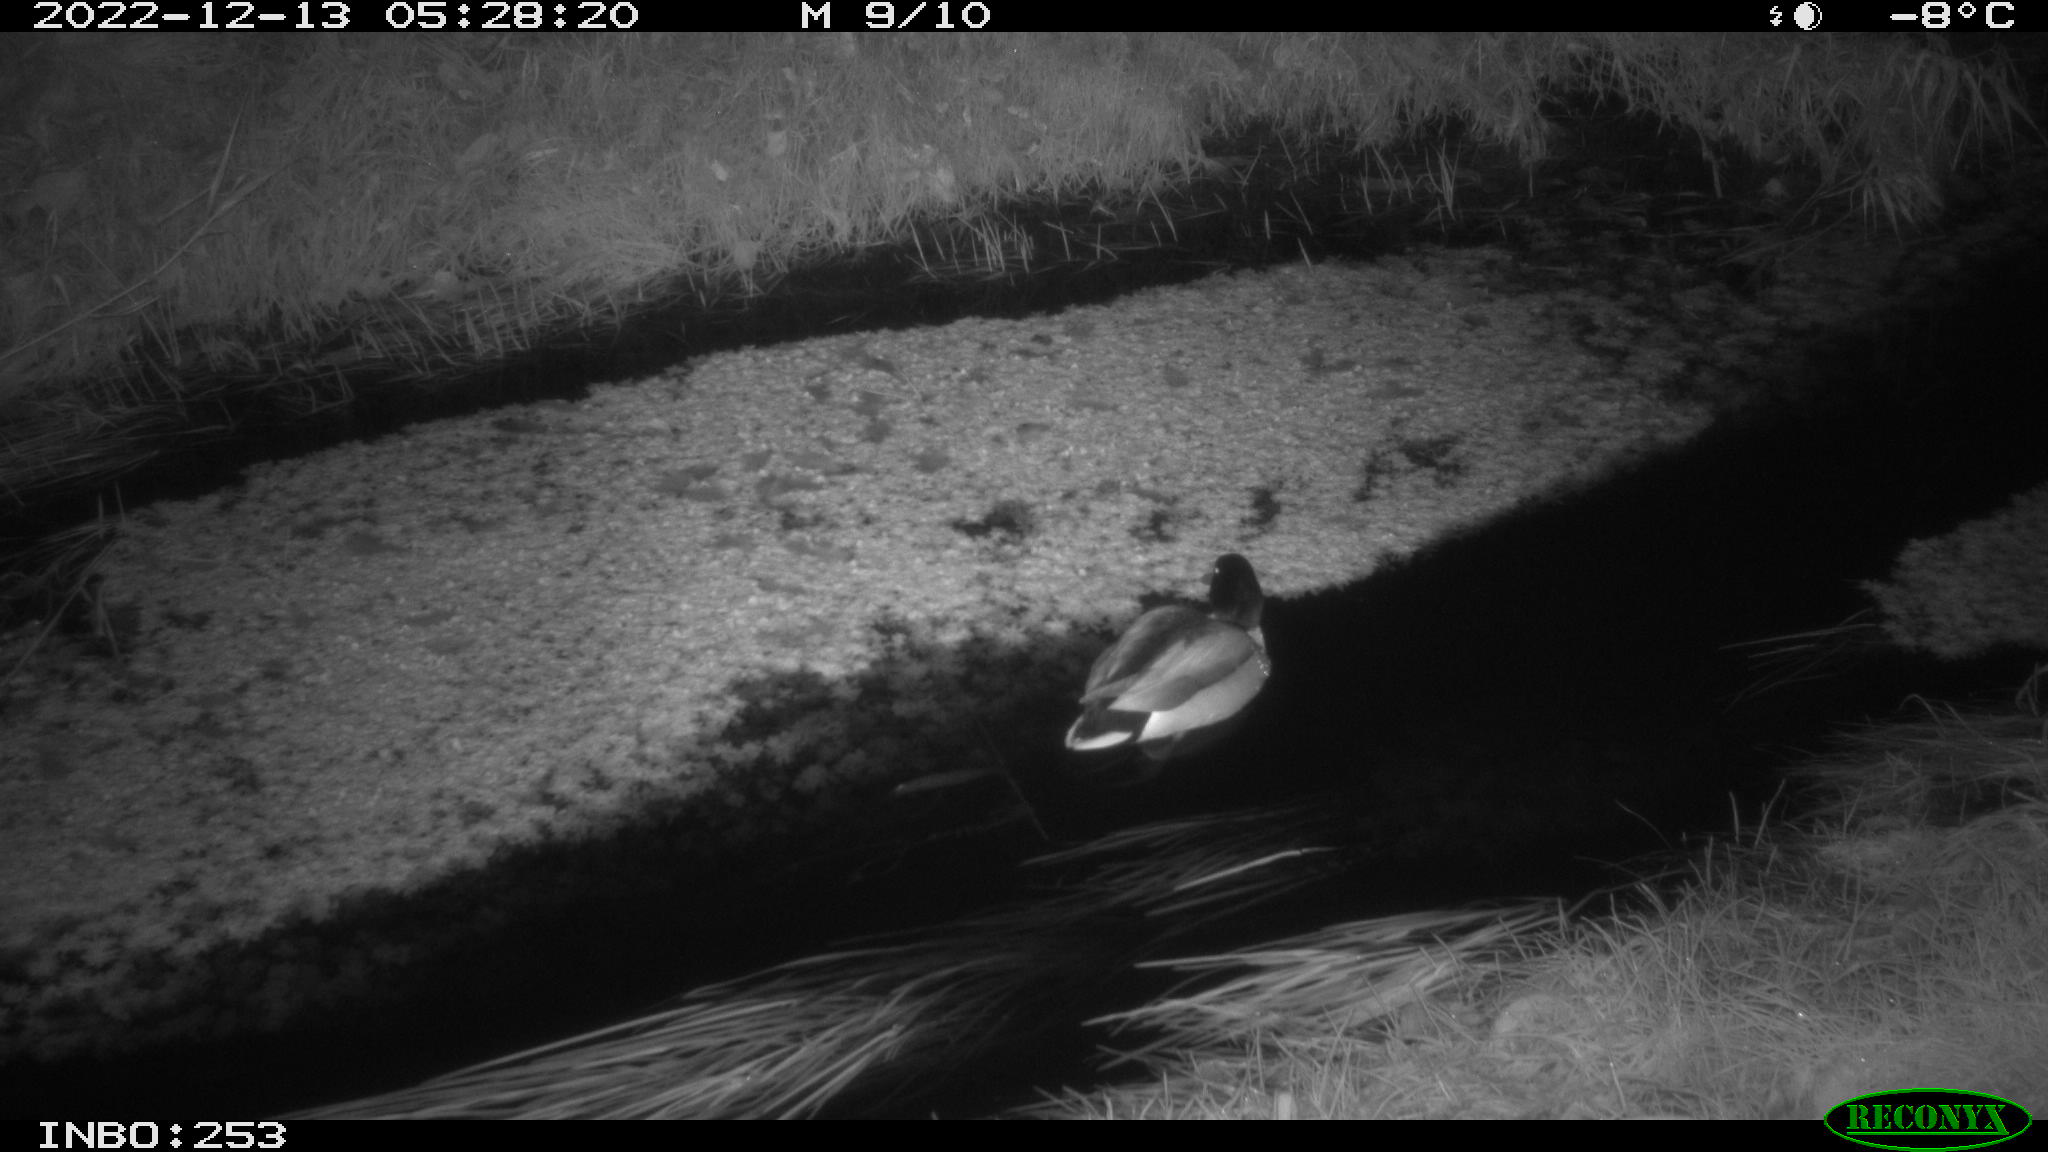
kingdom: Animalia
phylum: Chordata
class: Aves
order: Anseriformes
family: Anatidae
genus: Anas
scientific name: Anas
